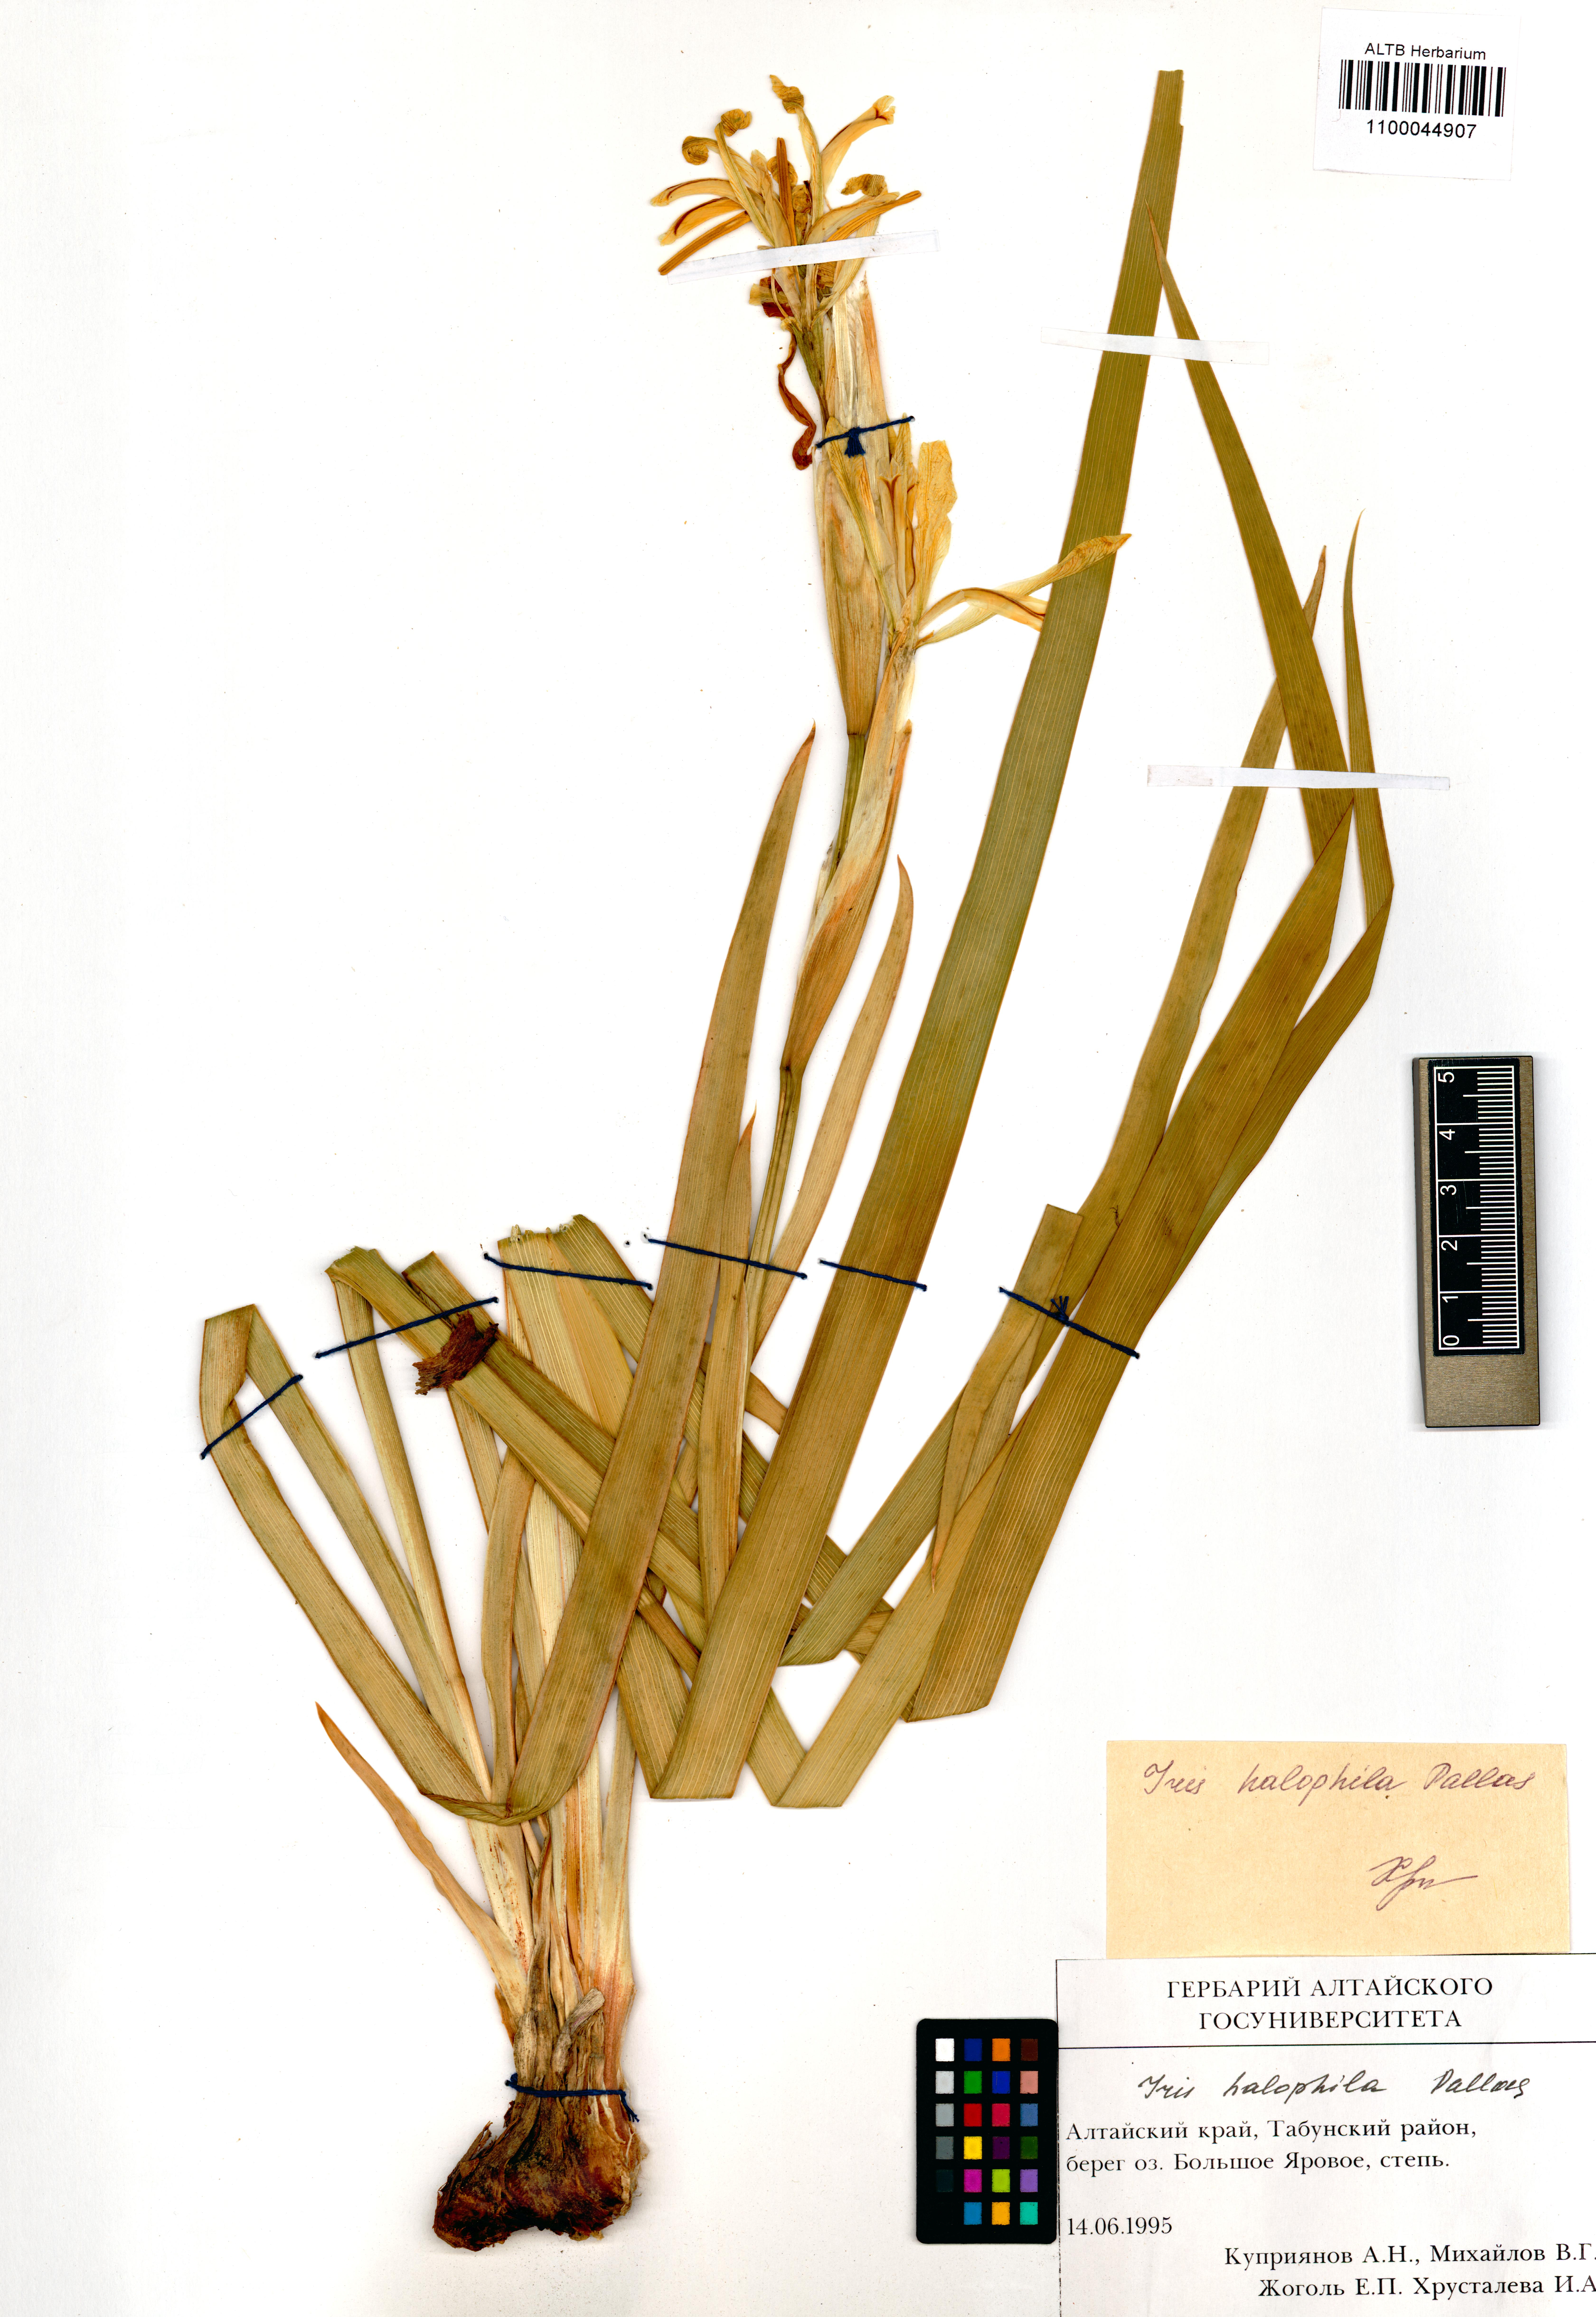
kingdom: Plantae
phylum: Tracheophyta
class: Liliopsida
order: Asparagales
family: Iridaceae
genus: Iris
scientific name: Iris halophila
